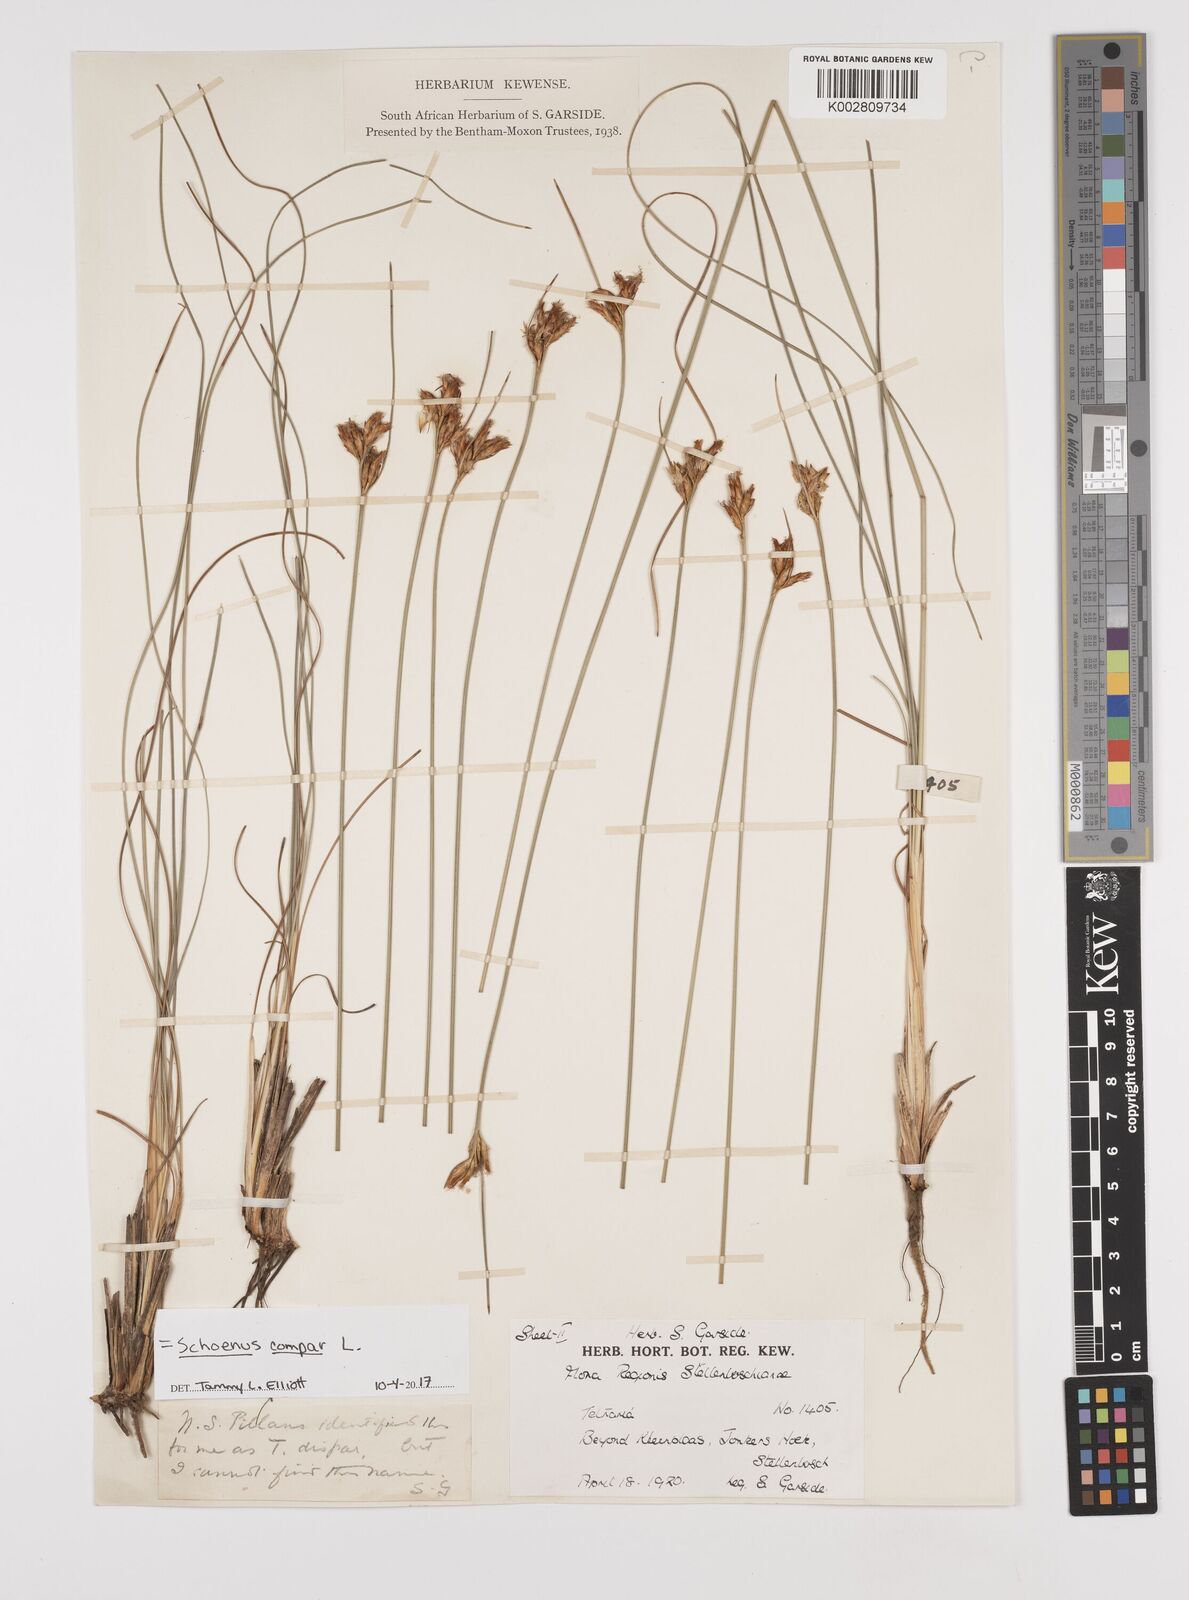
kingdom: Plantae
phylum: Tracheophyta
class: Liliopsida
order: Poales
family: Cyperaceae
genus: Schoenus
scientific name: Schoenus compar
